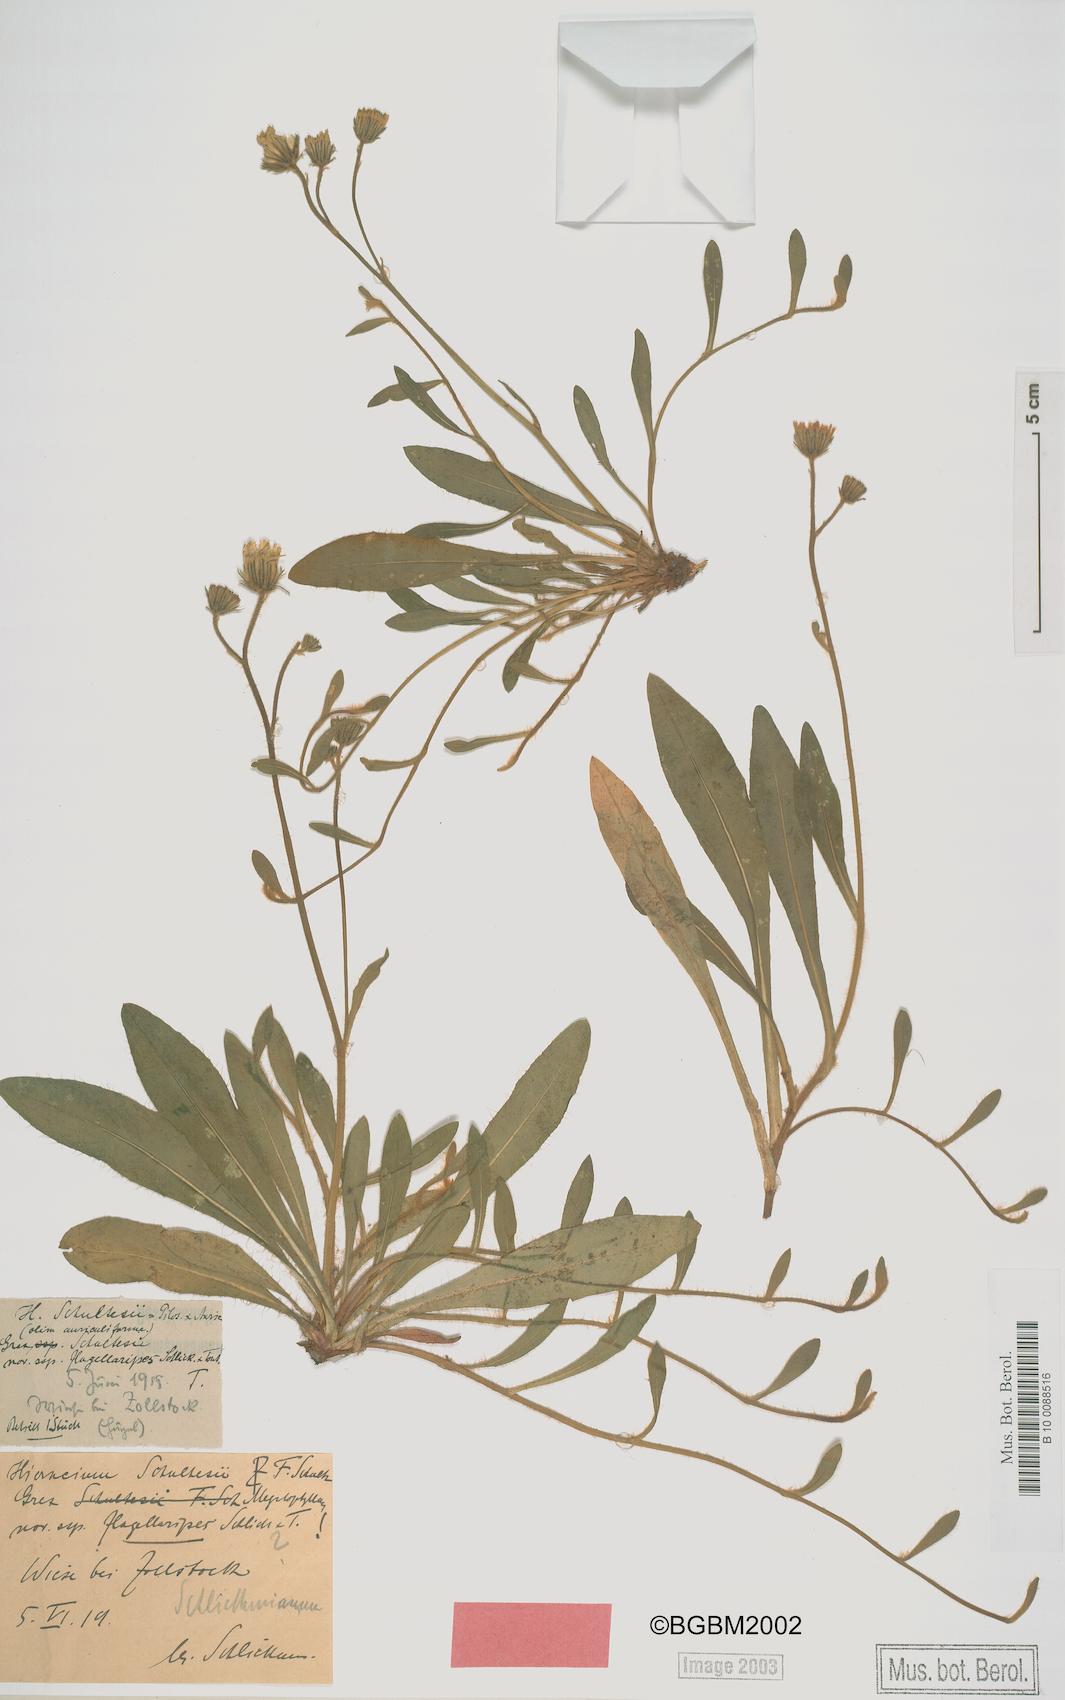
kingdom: Plantae
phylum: Tracheophyta
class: Magnoliopsida
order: Asterales
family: Asteraceae
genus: Pilosella
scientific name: Pilosella schultesii
